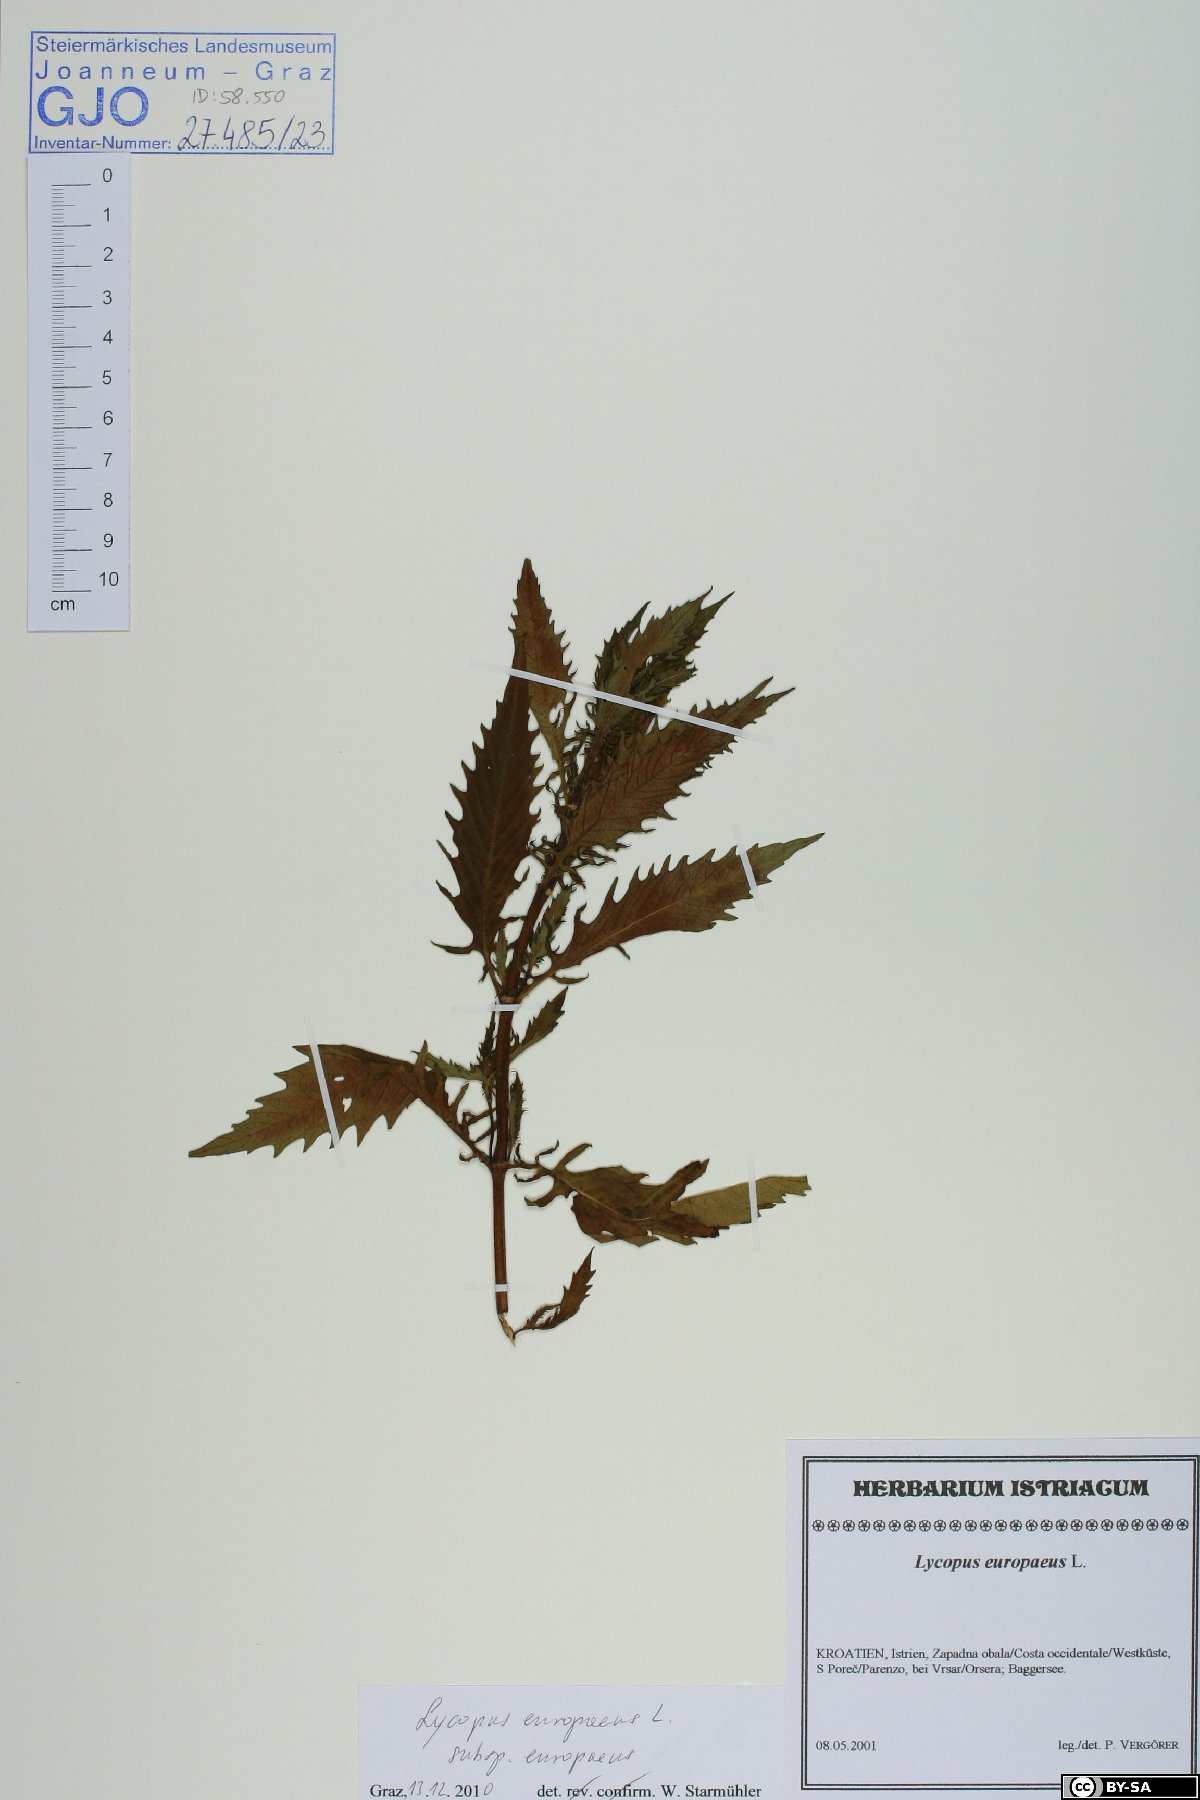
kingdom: Plantae
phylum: Tracheophyta
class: Magnoliopsida
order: Lamiales
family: Lamiaceae
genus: Lycopus
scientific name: Lycopus europaeus
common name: European bugleweed
